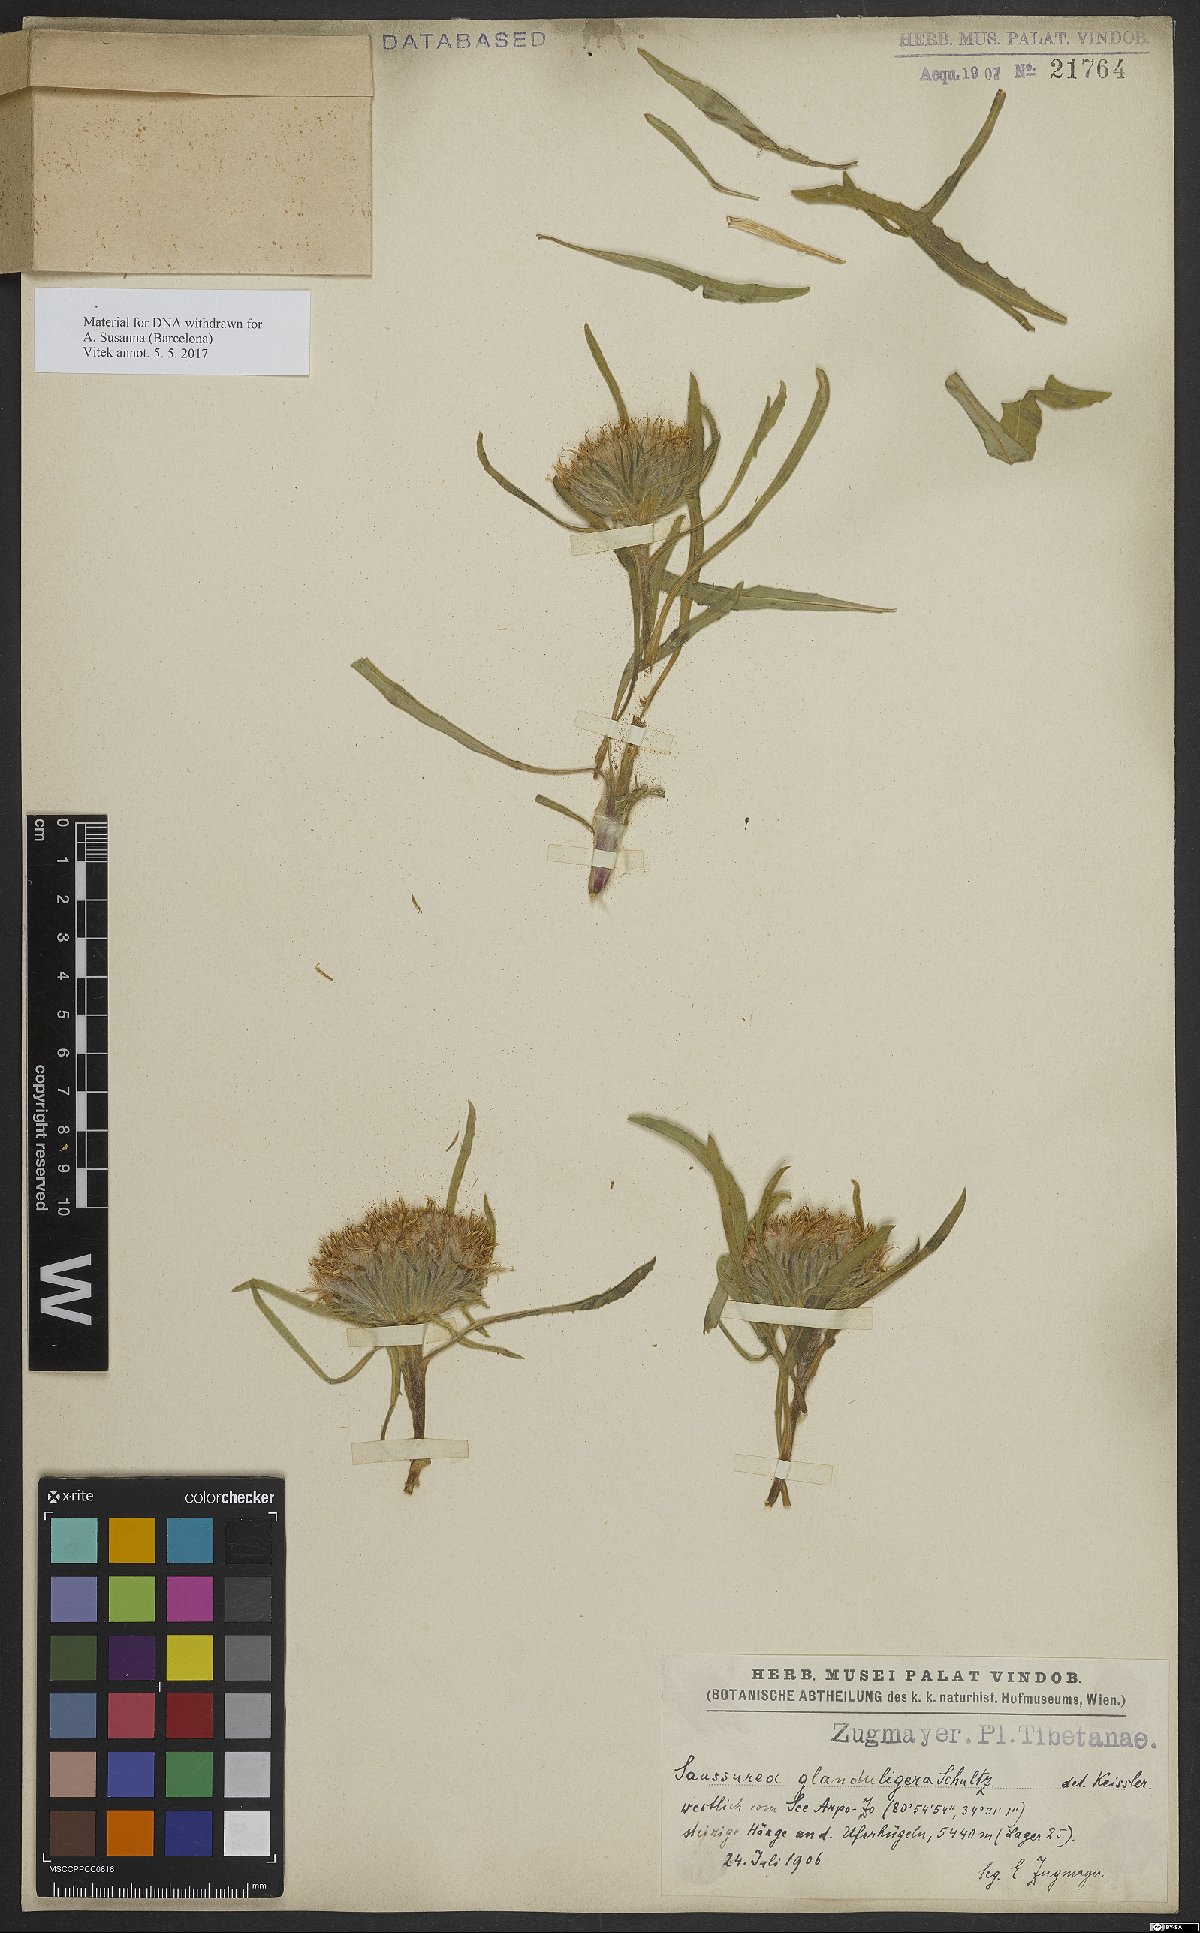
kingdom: Plantae
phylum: Tracheophyta
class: Magnoliopsida
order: Asterales
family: Asteraceae
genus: Saussurea
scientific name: Saussurea schlagintweitii
